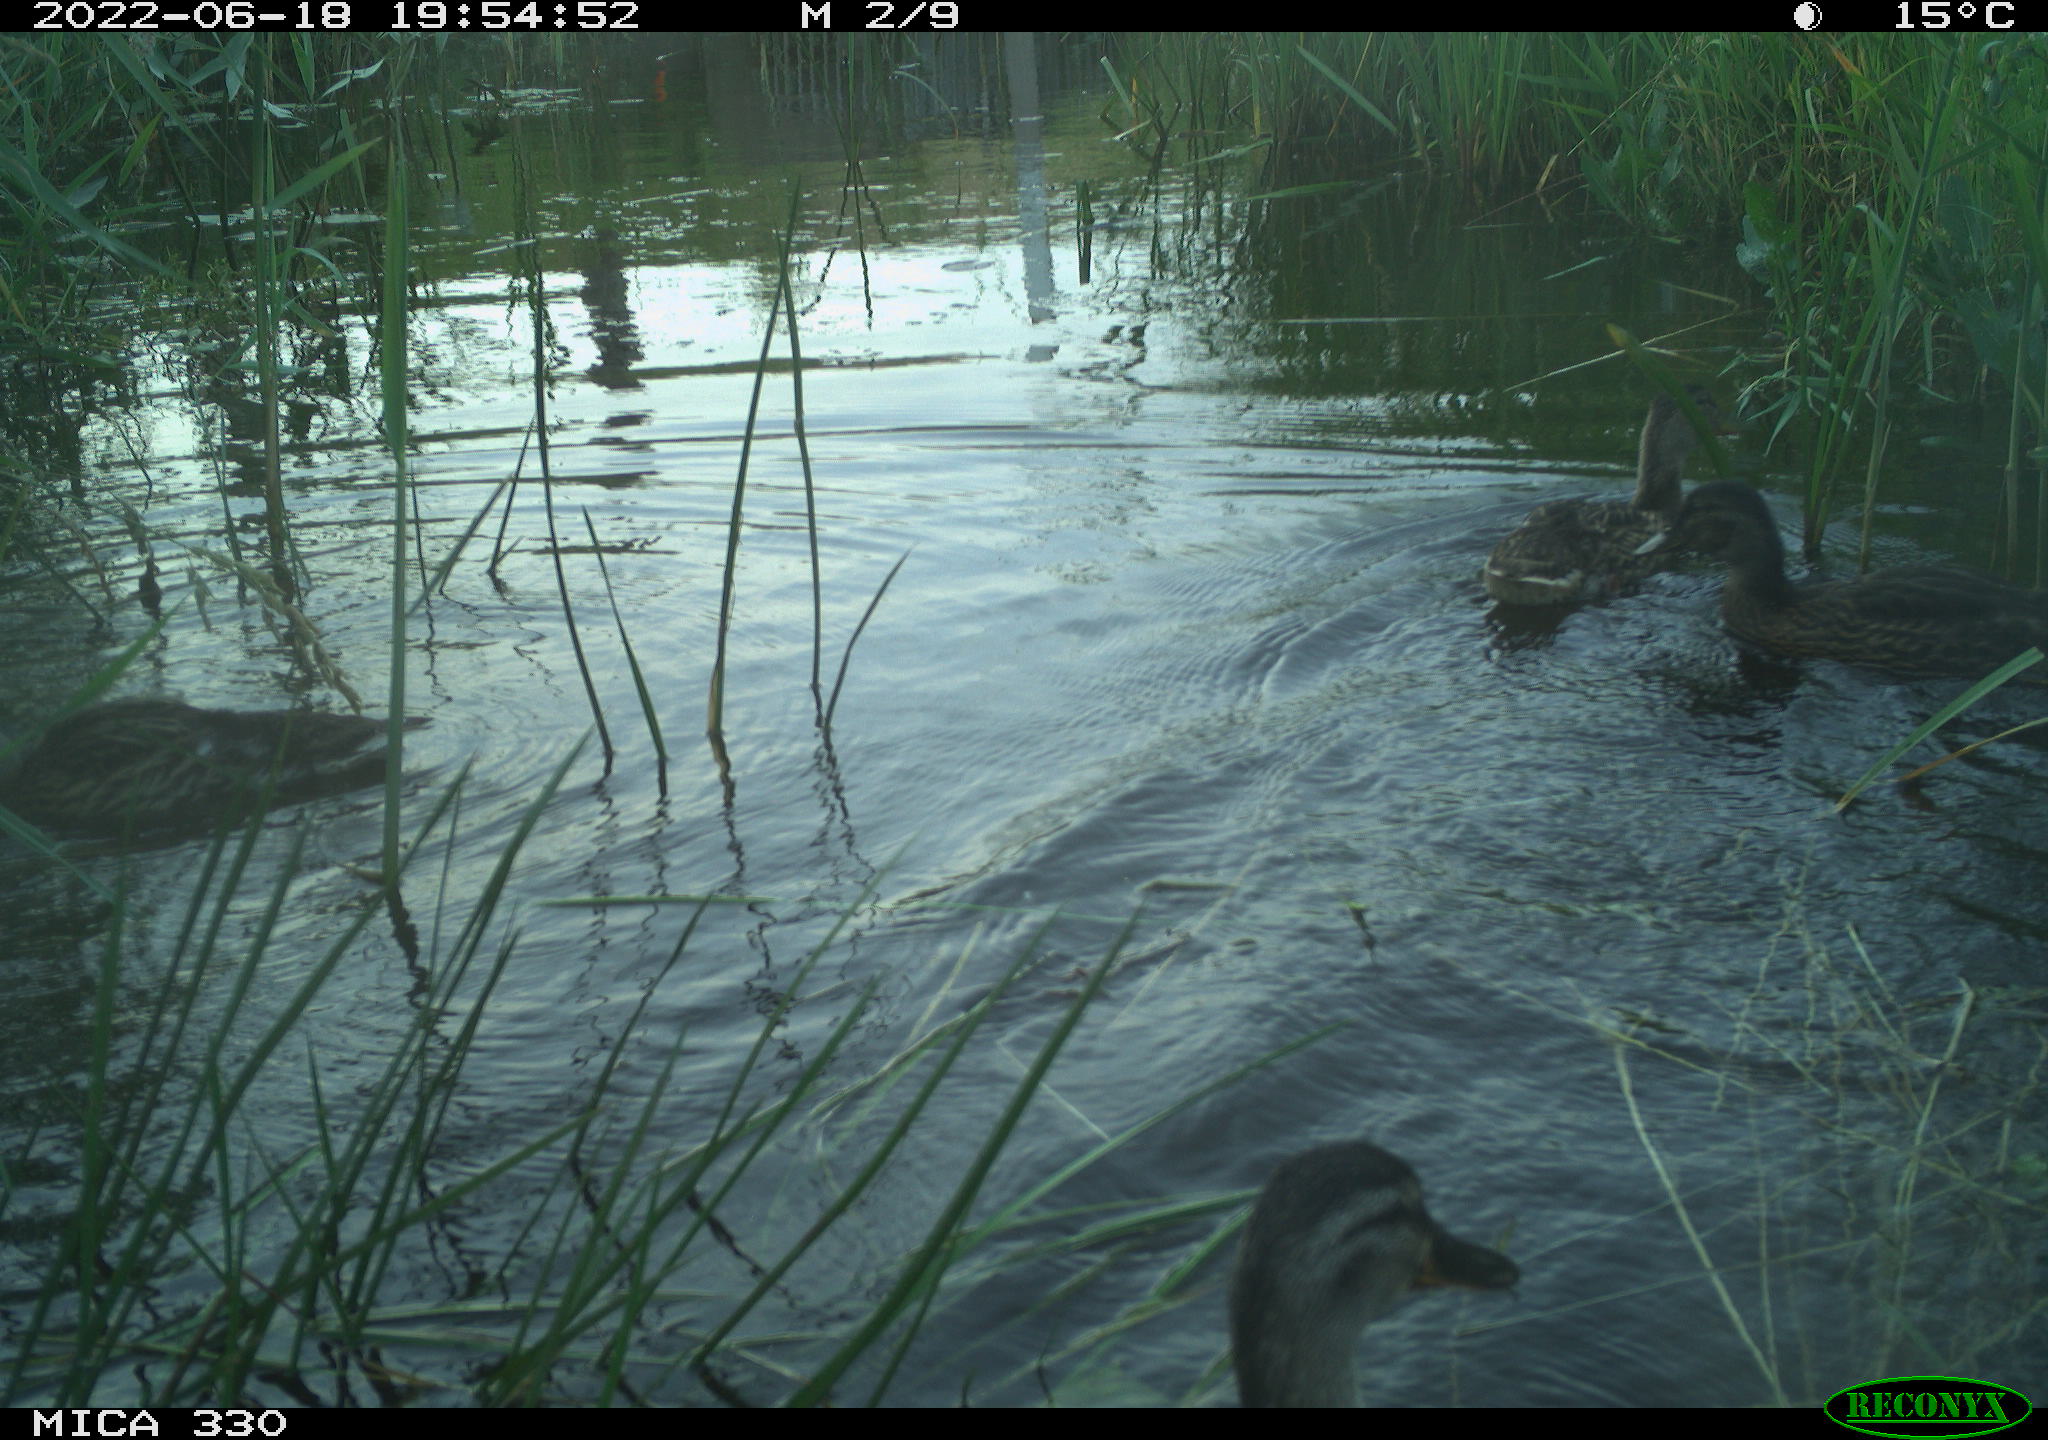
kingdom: Animalia
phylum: Chordata
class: Aves
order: Anseriformes
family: Anatidae
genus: Anas
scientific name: Anas platyrhynchos
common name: Mallard
